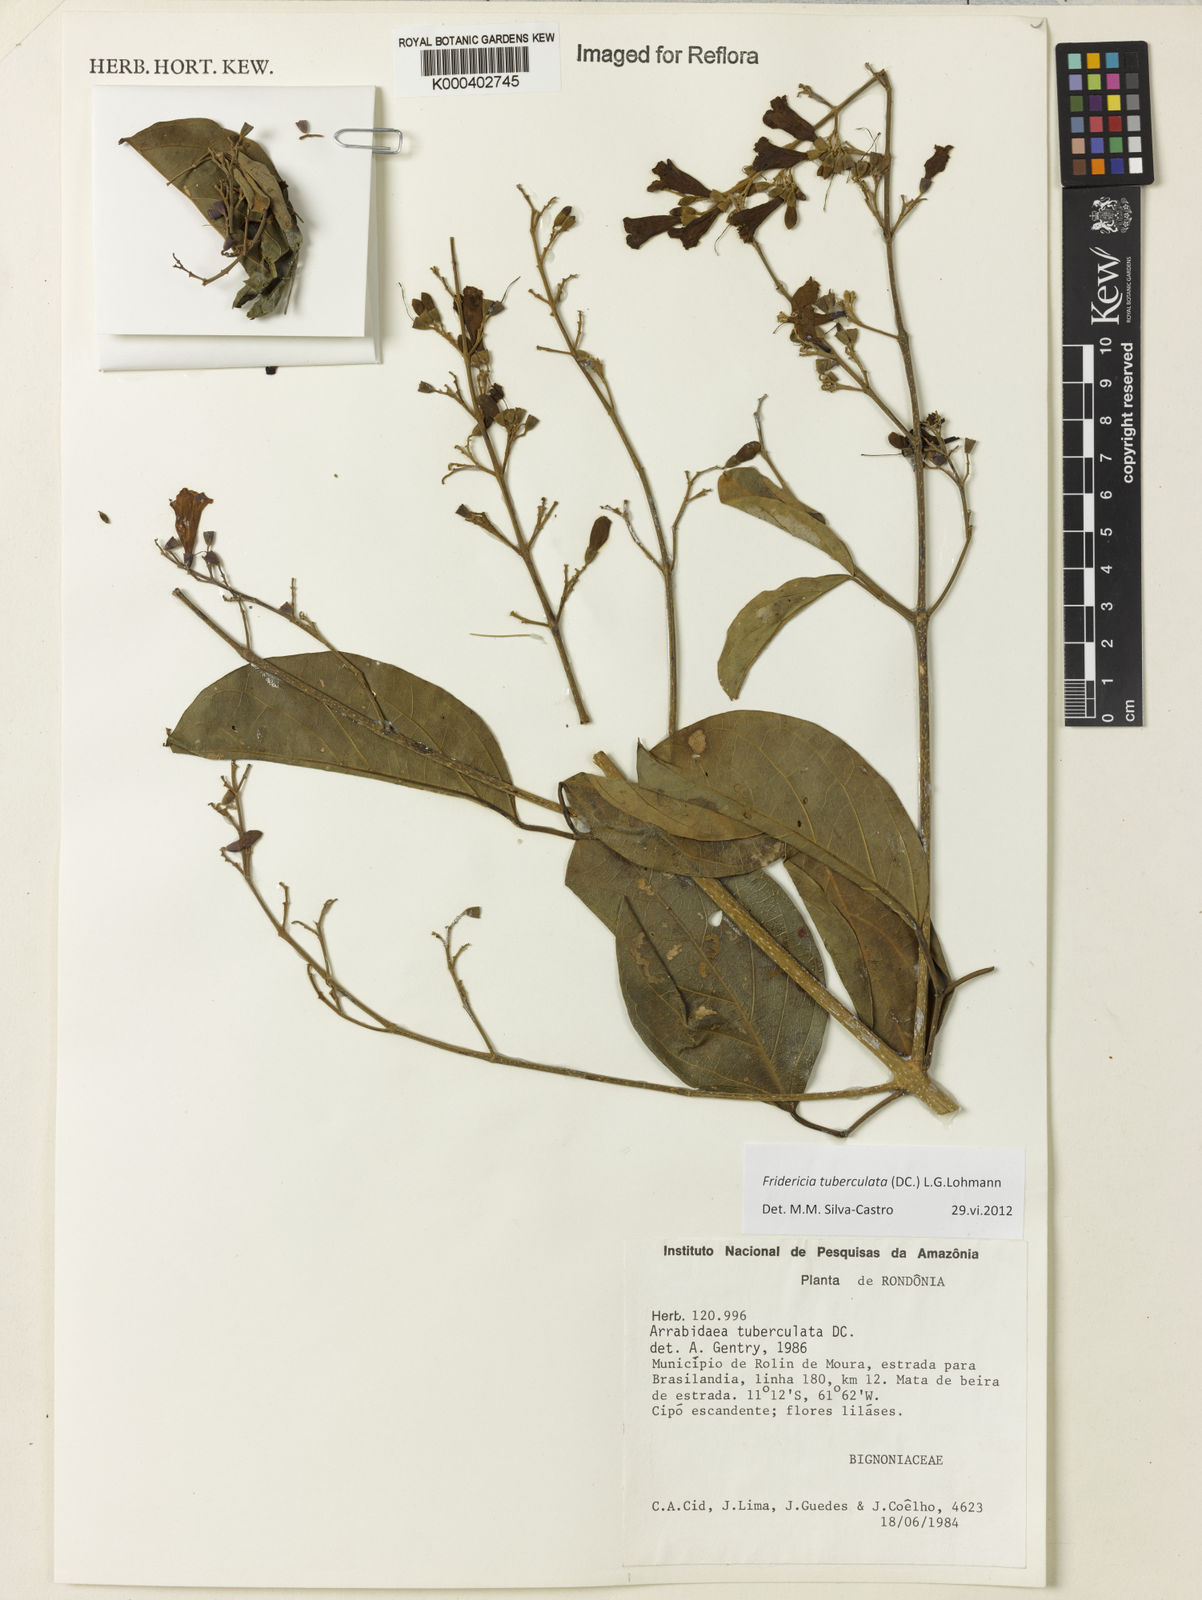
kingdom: Plantae
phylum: Tracheophyta
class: Magnoliopsida
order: Lamiales
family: Bignoniaceae
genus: Fridericia
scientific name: Fridericia tuberculata
